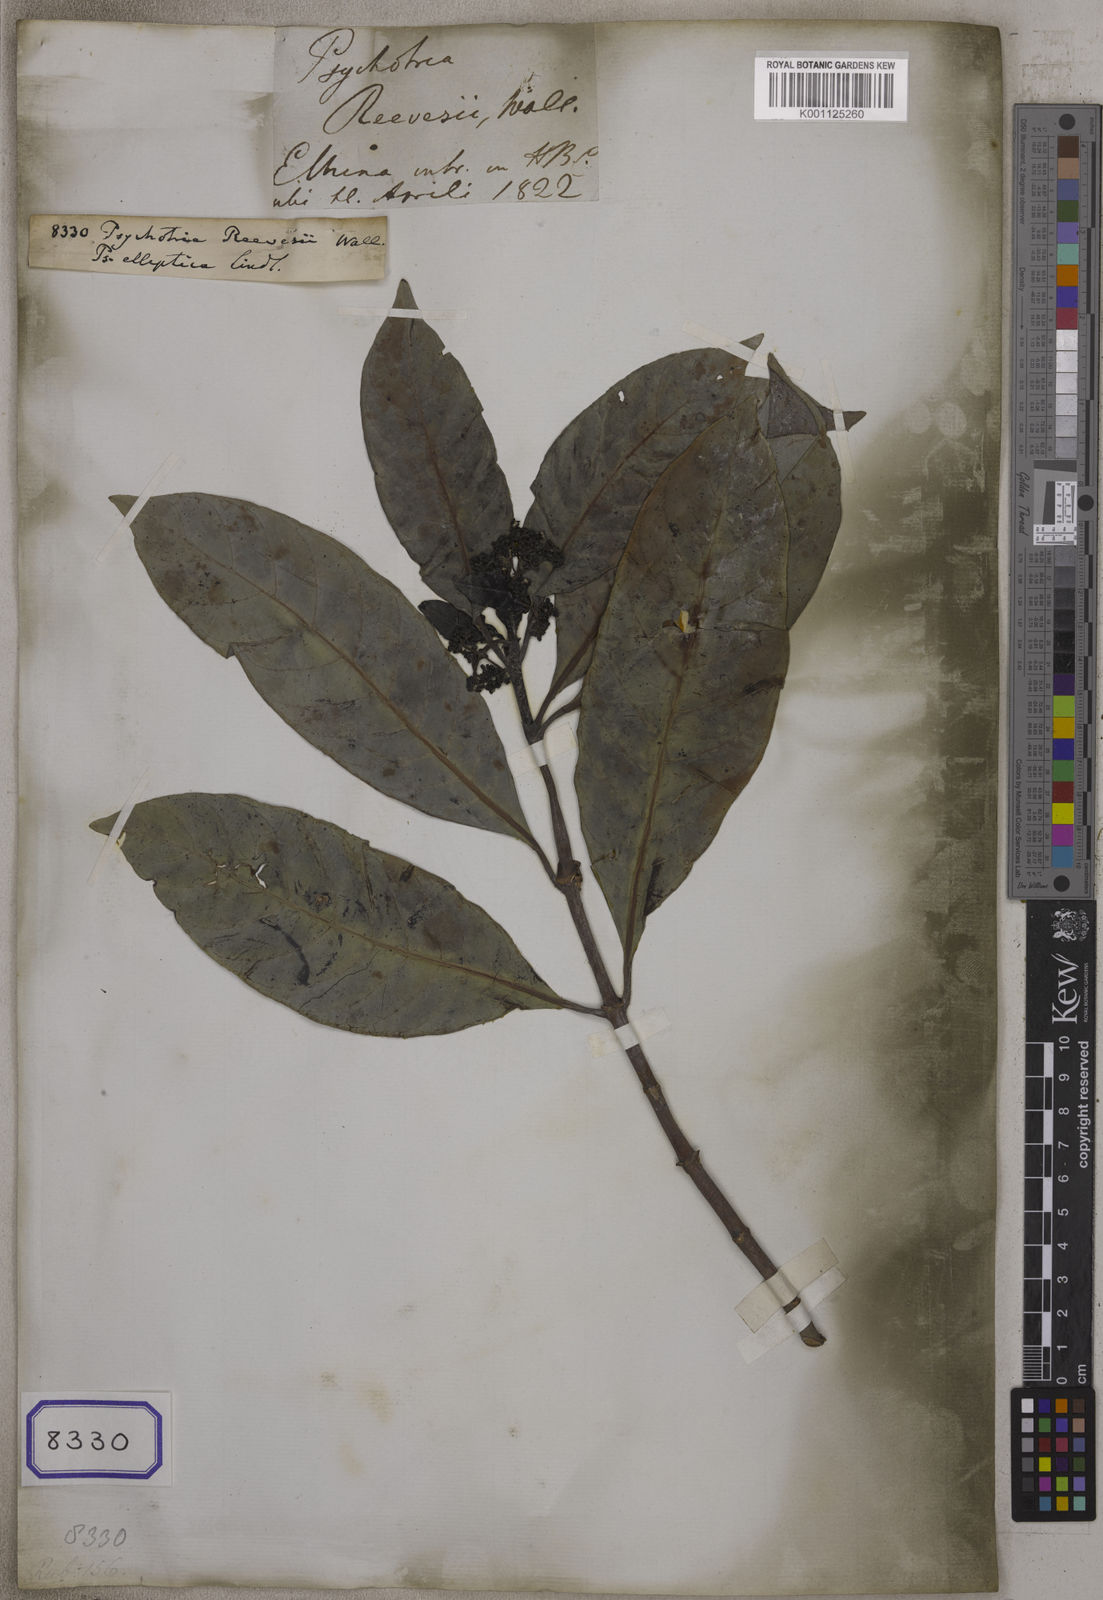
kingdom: Plantae
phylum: Tracheophyta
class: Magnoliopsida
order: Gentianales
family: Rubiaceae
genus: Psychotria
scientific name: Psychotria asiatica
